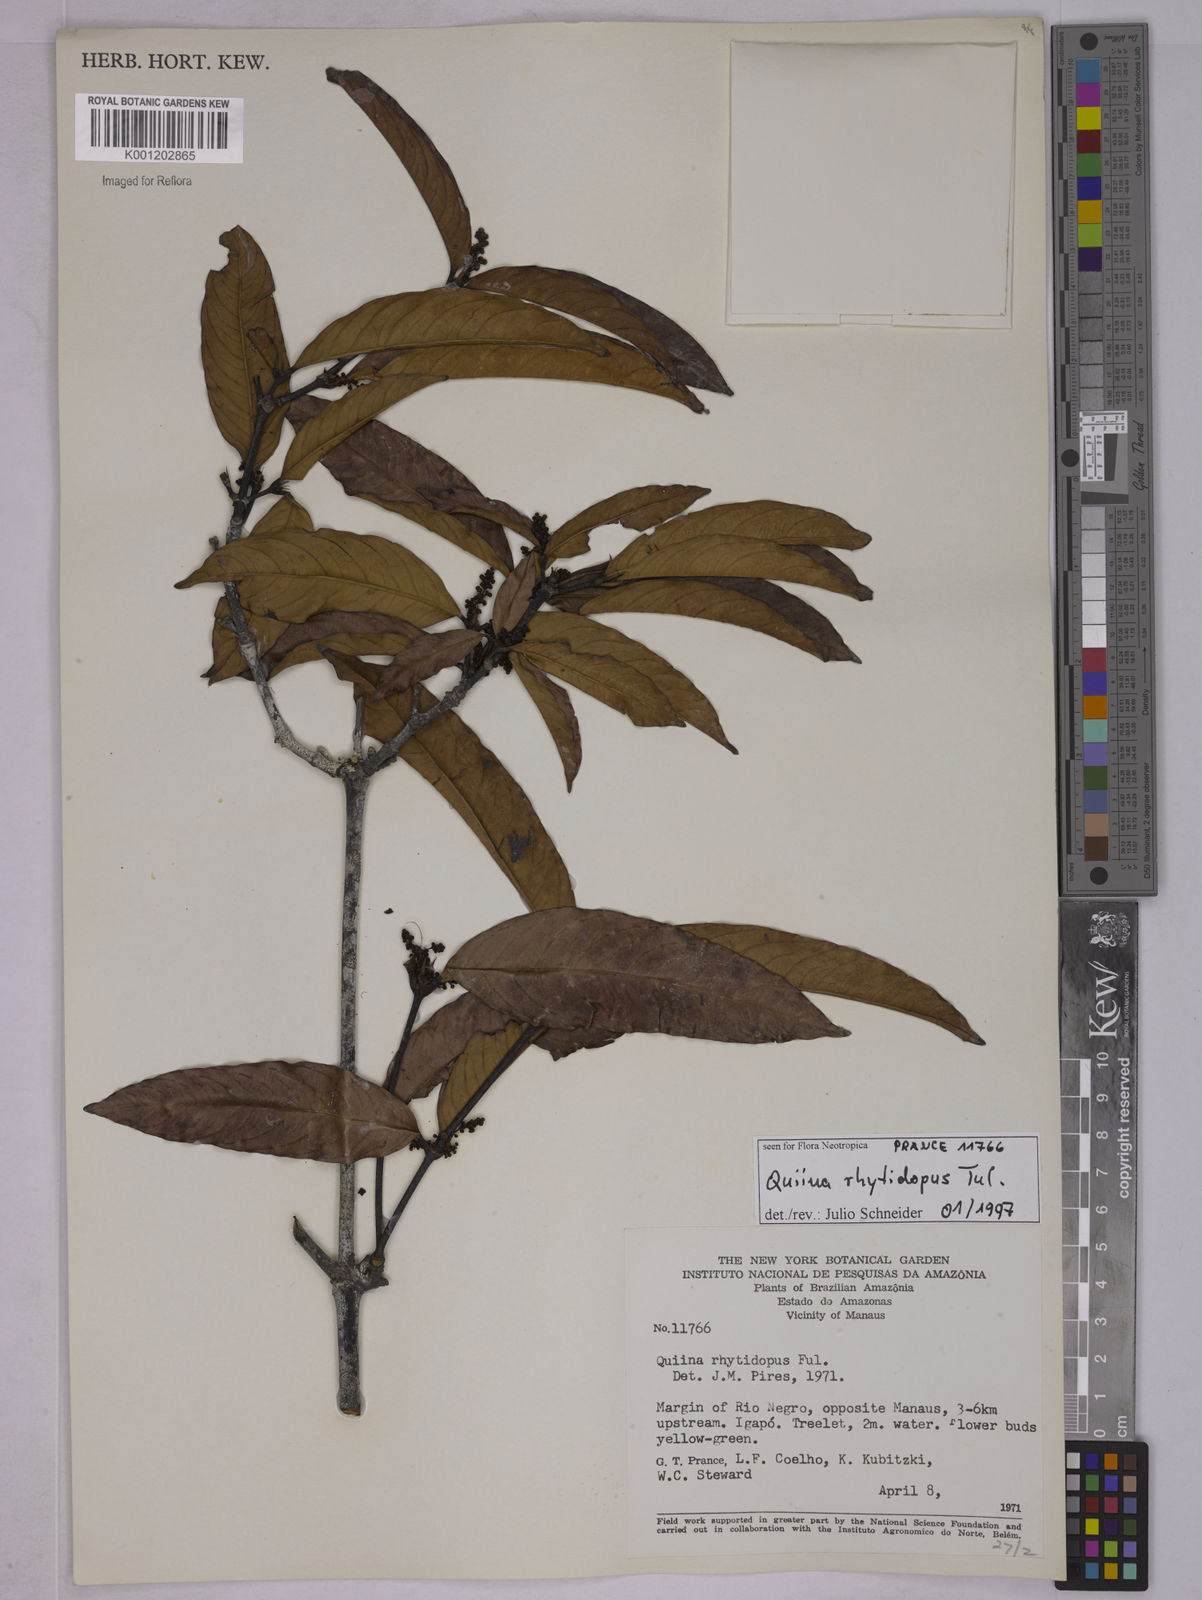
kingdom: Plantae
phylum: Tracheophyta
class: Magnoliopsida
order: Malpighiales
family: Quiinaceae
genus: Quiina
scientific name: Quiina rhytidopus
